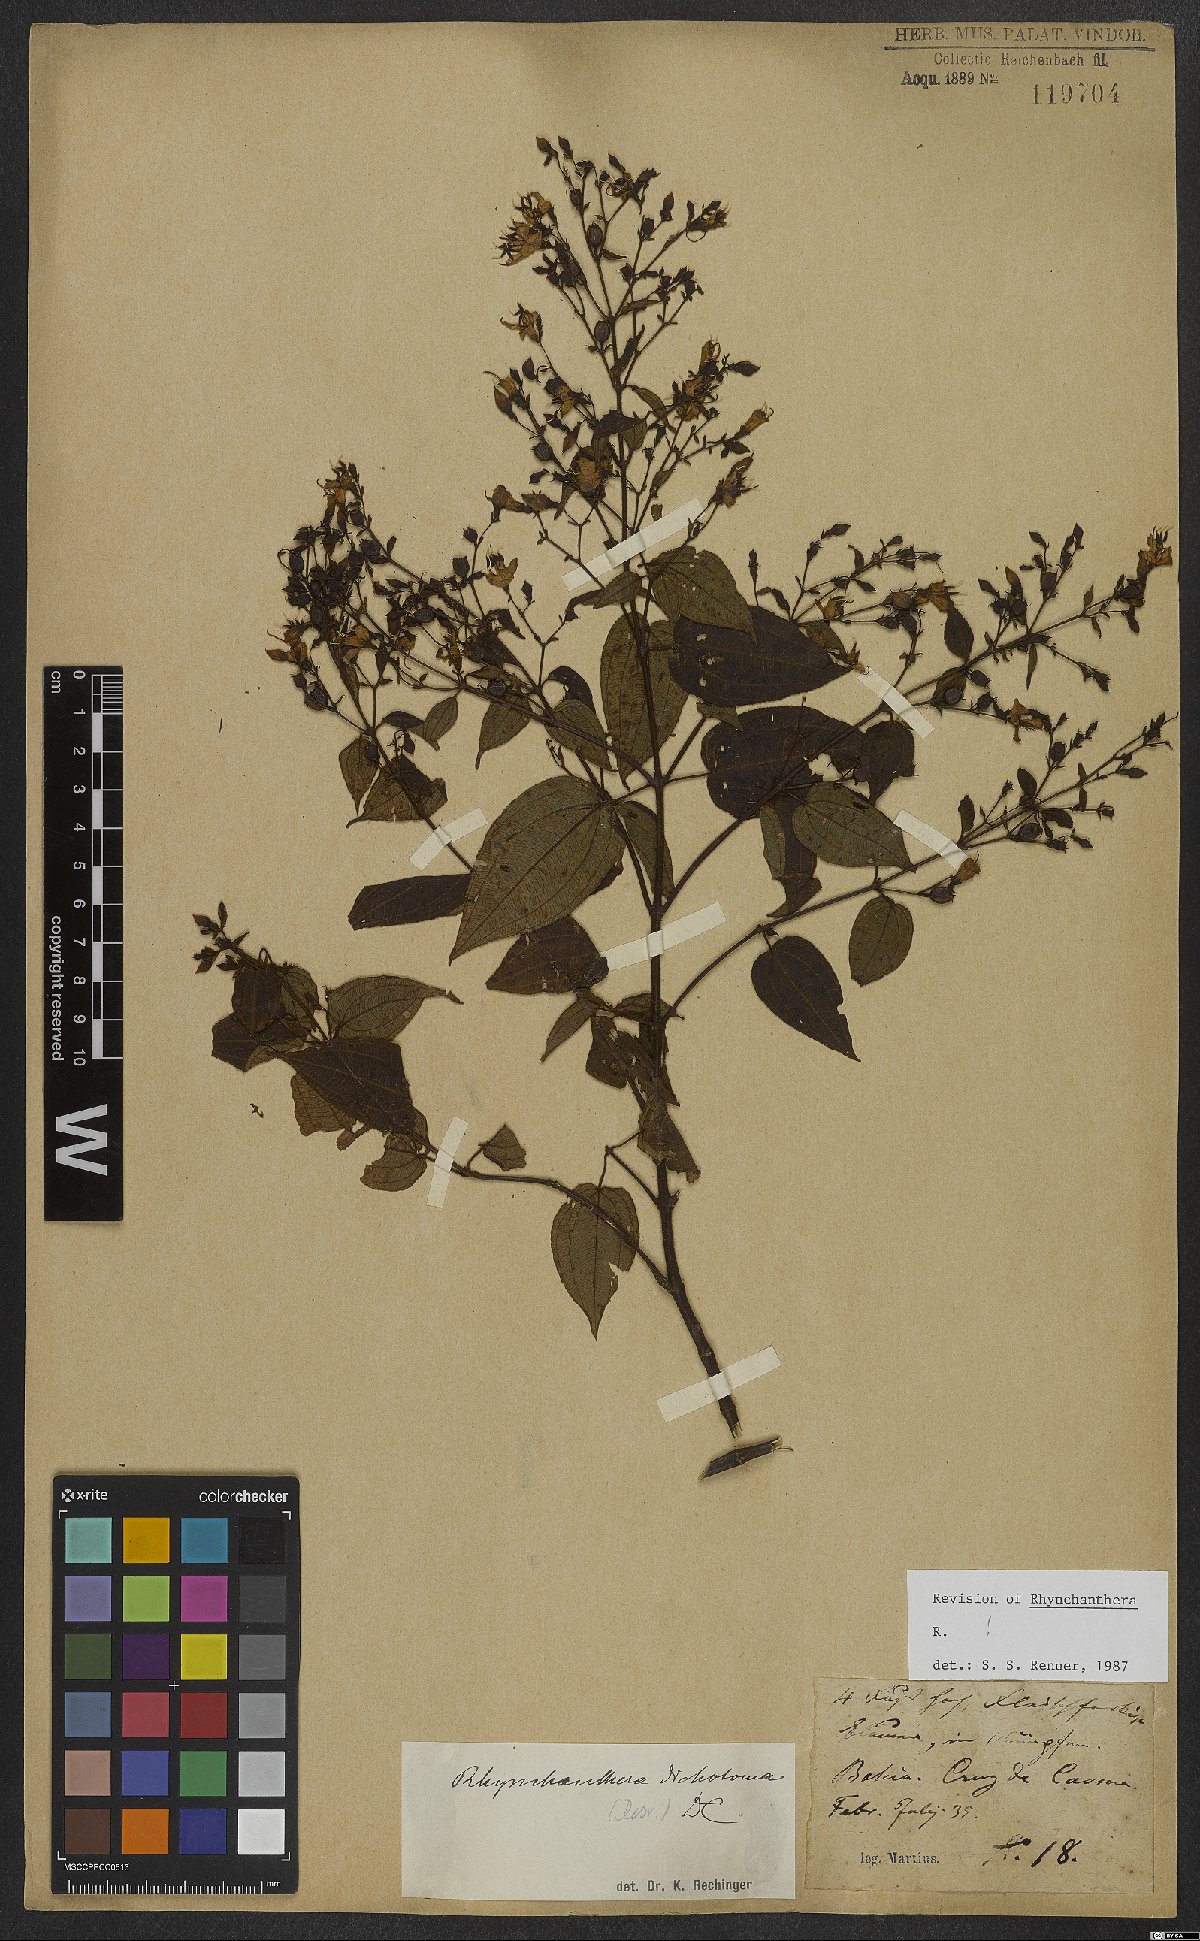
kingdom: Plantae
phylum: Tracheophyta
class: Magnoliopsida
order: Myrtales
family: Melastomataceae
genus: Rhynchanthera
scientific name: Rhynchanthera dichotoma
